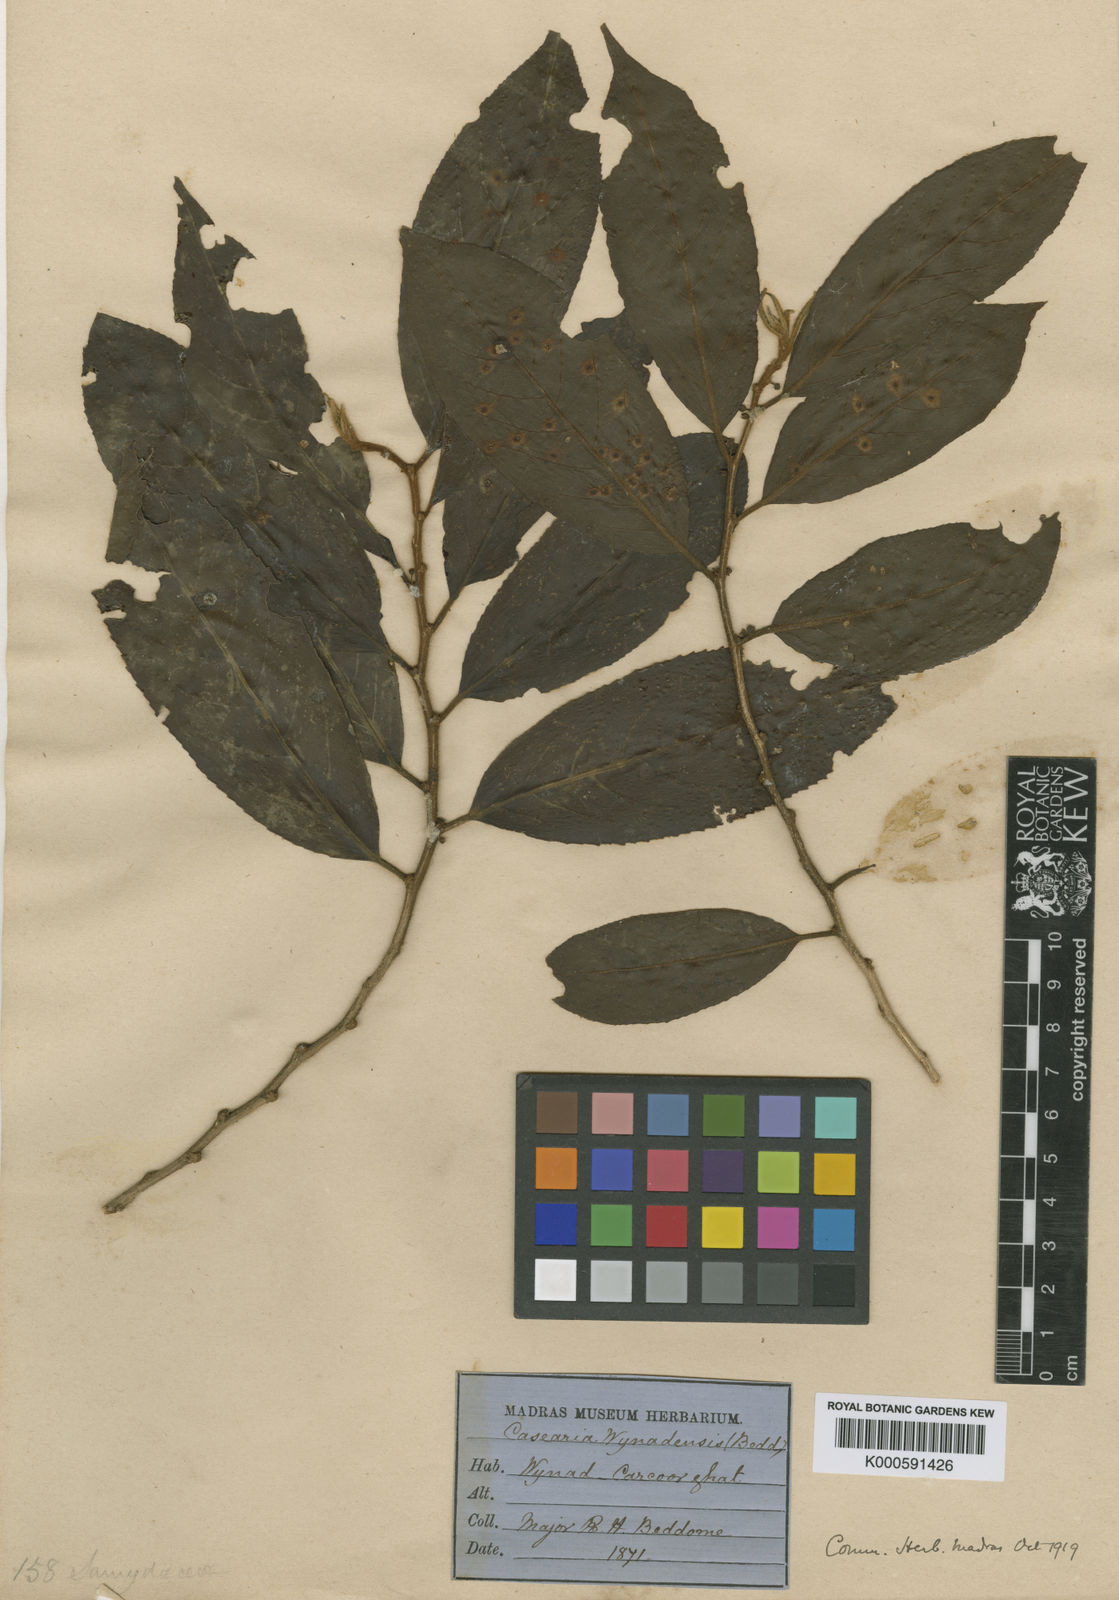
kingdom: Plantae
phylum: Tracheophyta
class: Magnoliopsida
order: Malpighiales
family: Salicaceae
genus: Casearia
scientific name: Casearia wynadensis
